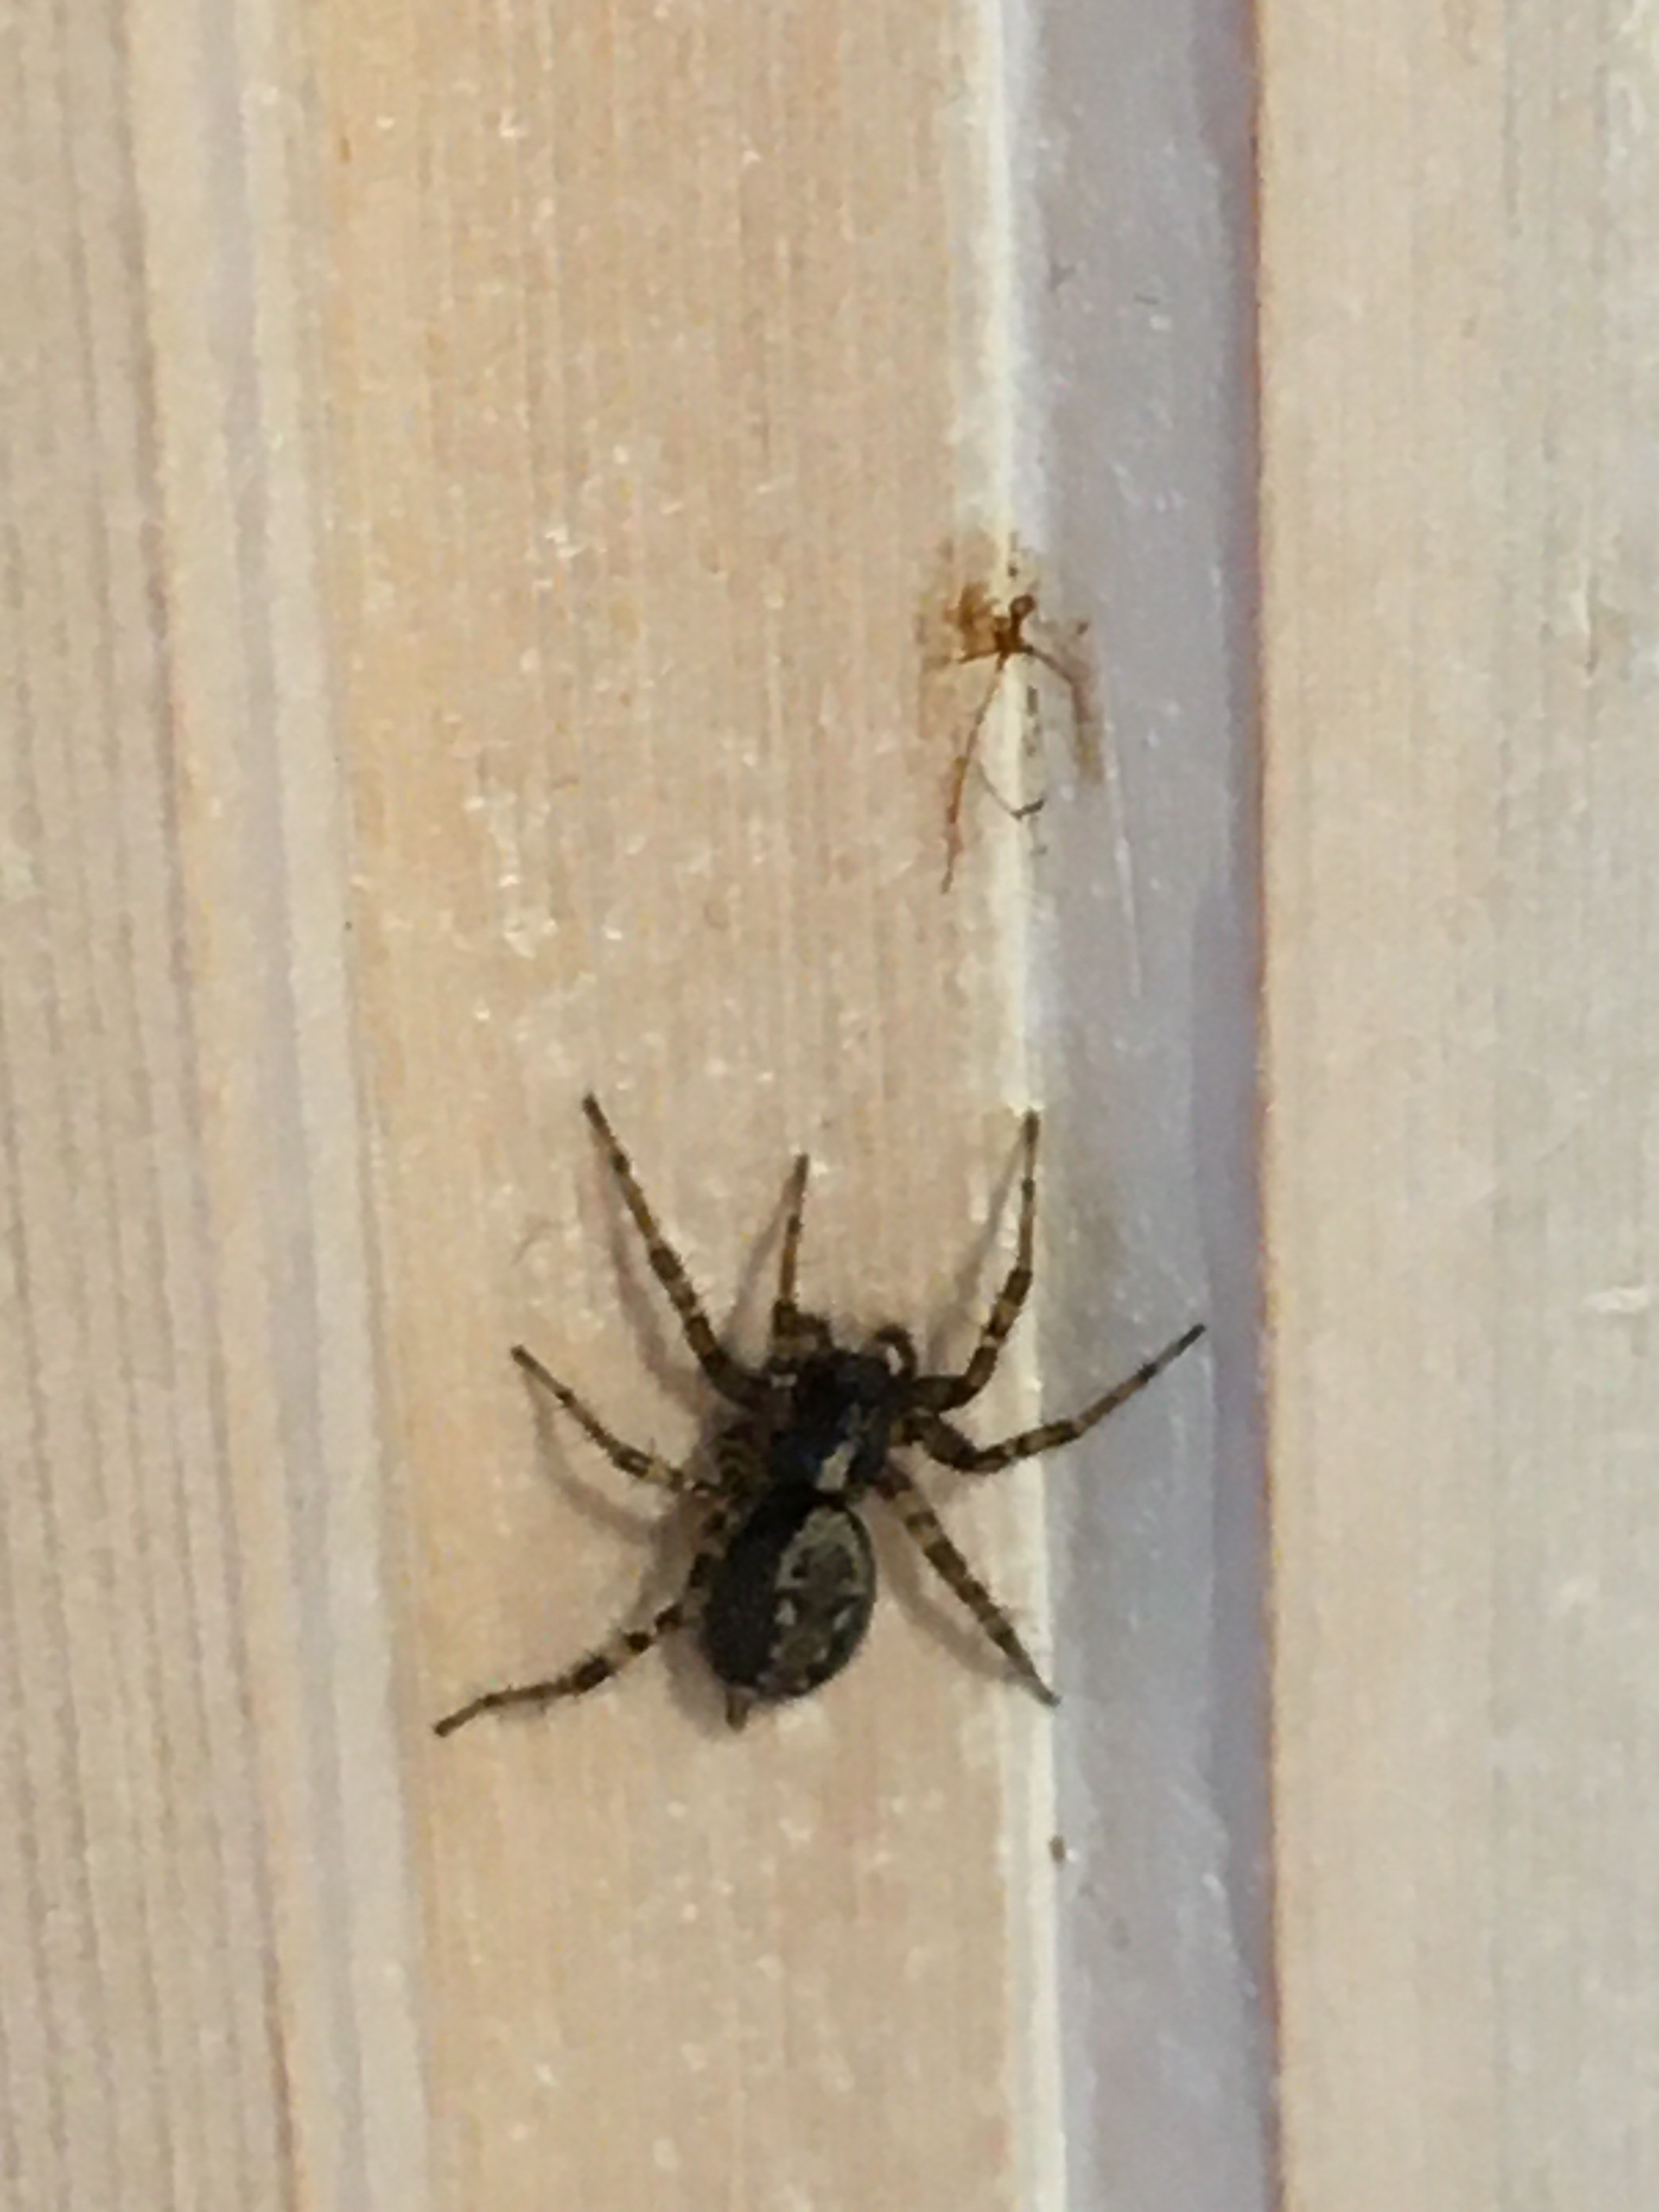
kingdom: Animalia
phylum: Arthropoda
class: Arachnida
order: Araneae
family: Agelenidae
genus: Textrix
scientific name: Textrix denticulata
